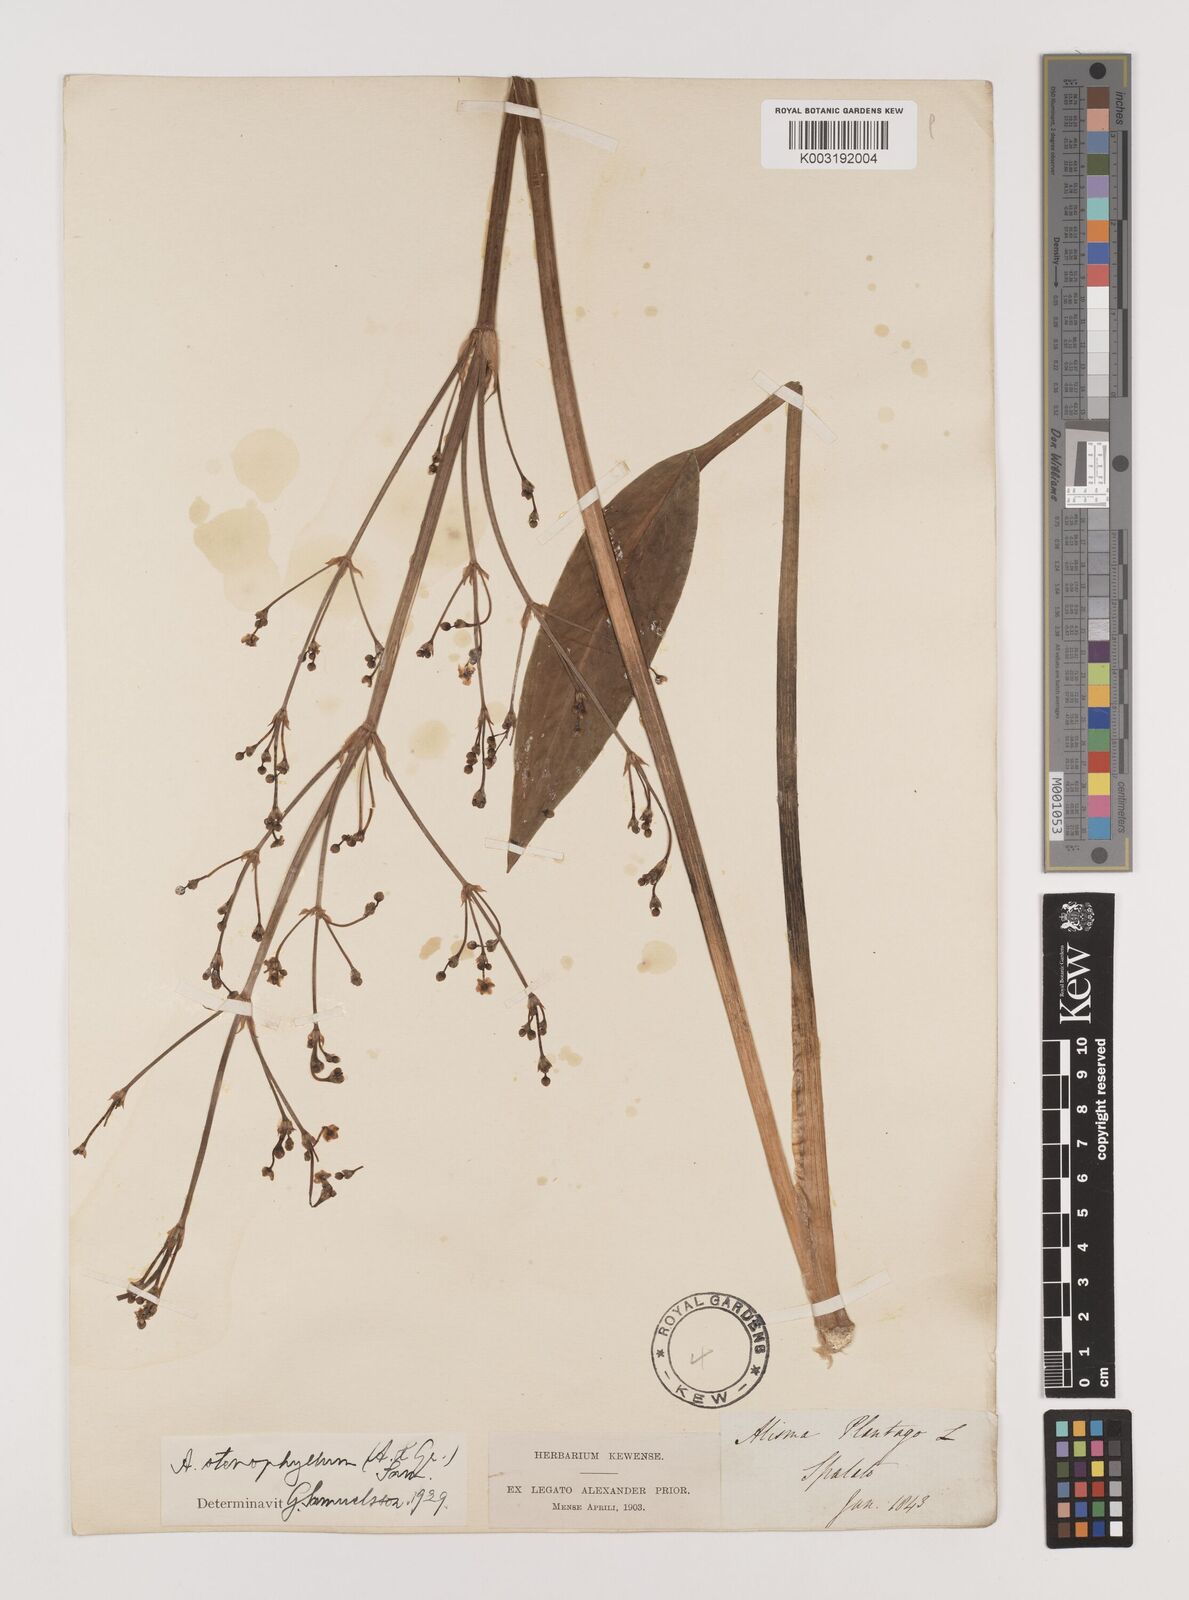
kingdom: Plantae
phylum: Tracheophyta
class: Liliopsida
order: Alismatales
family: Alismataceae
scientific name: Alismataceae
